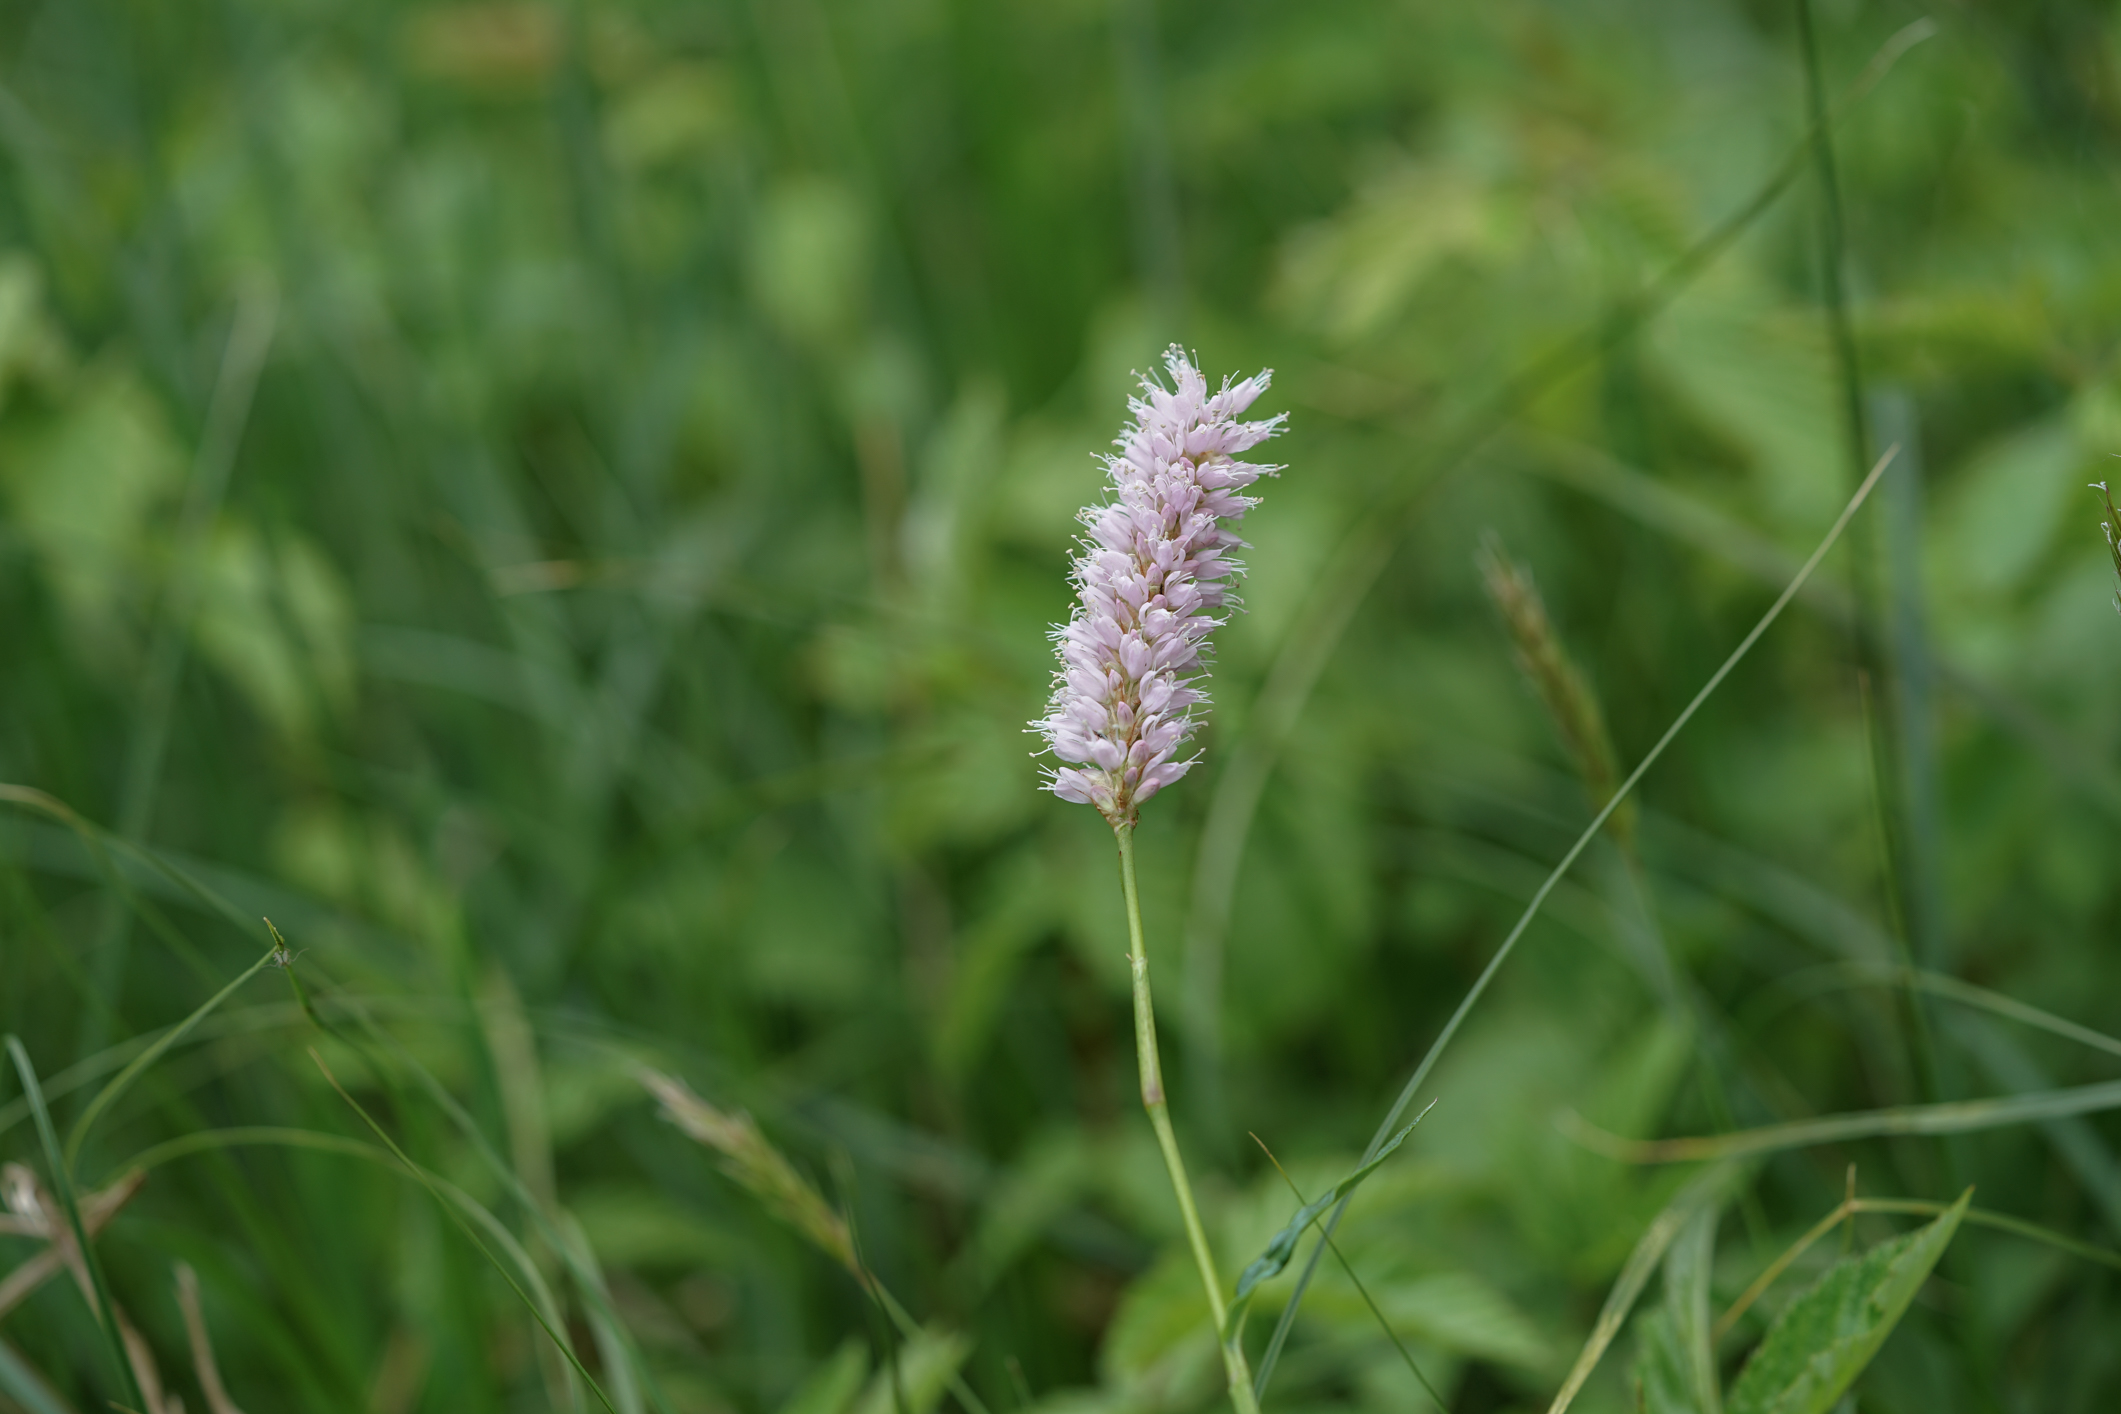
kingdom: Plantae
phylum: Tracheophyta
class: Magnoliopsida
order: Caryophyllales
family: Polygonaceae
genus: Bistorta
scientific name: Bistorta officinalis
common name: Common bistort
